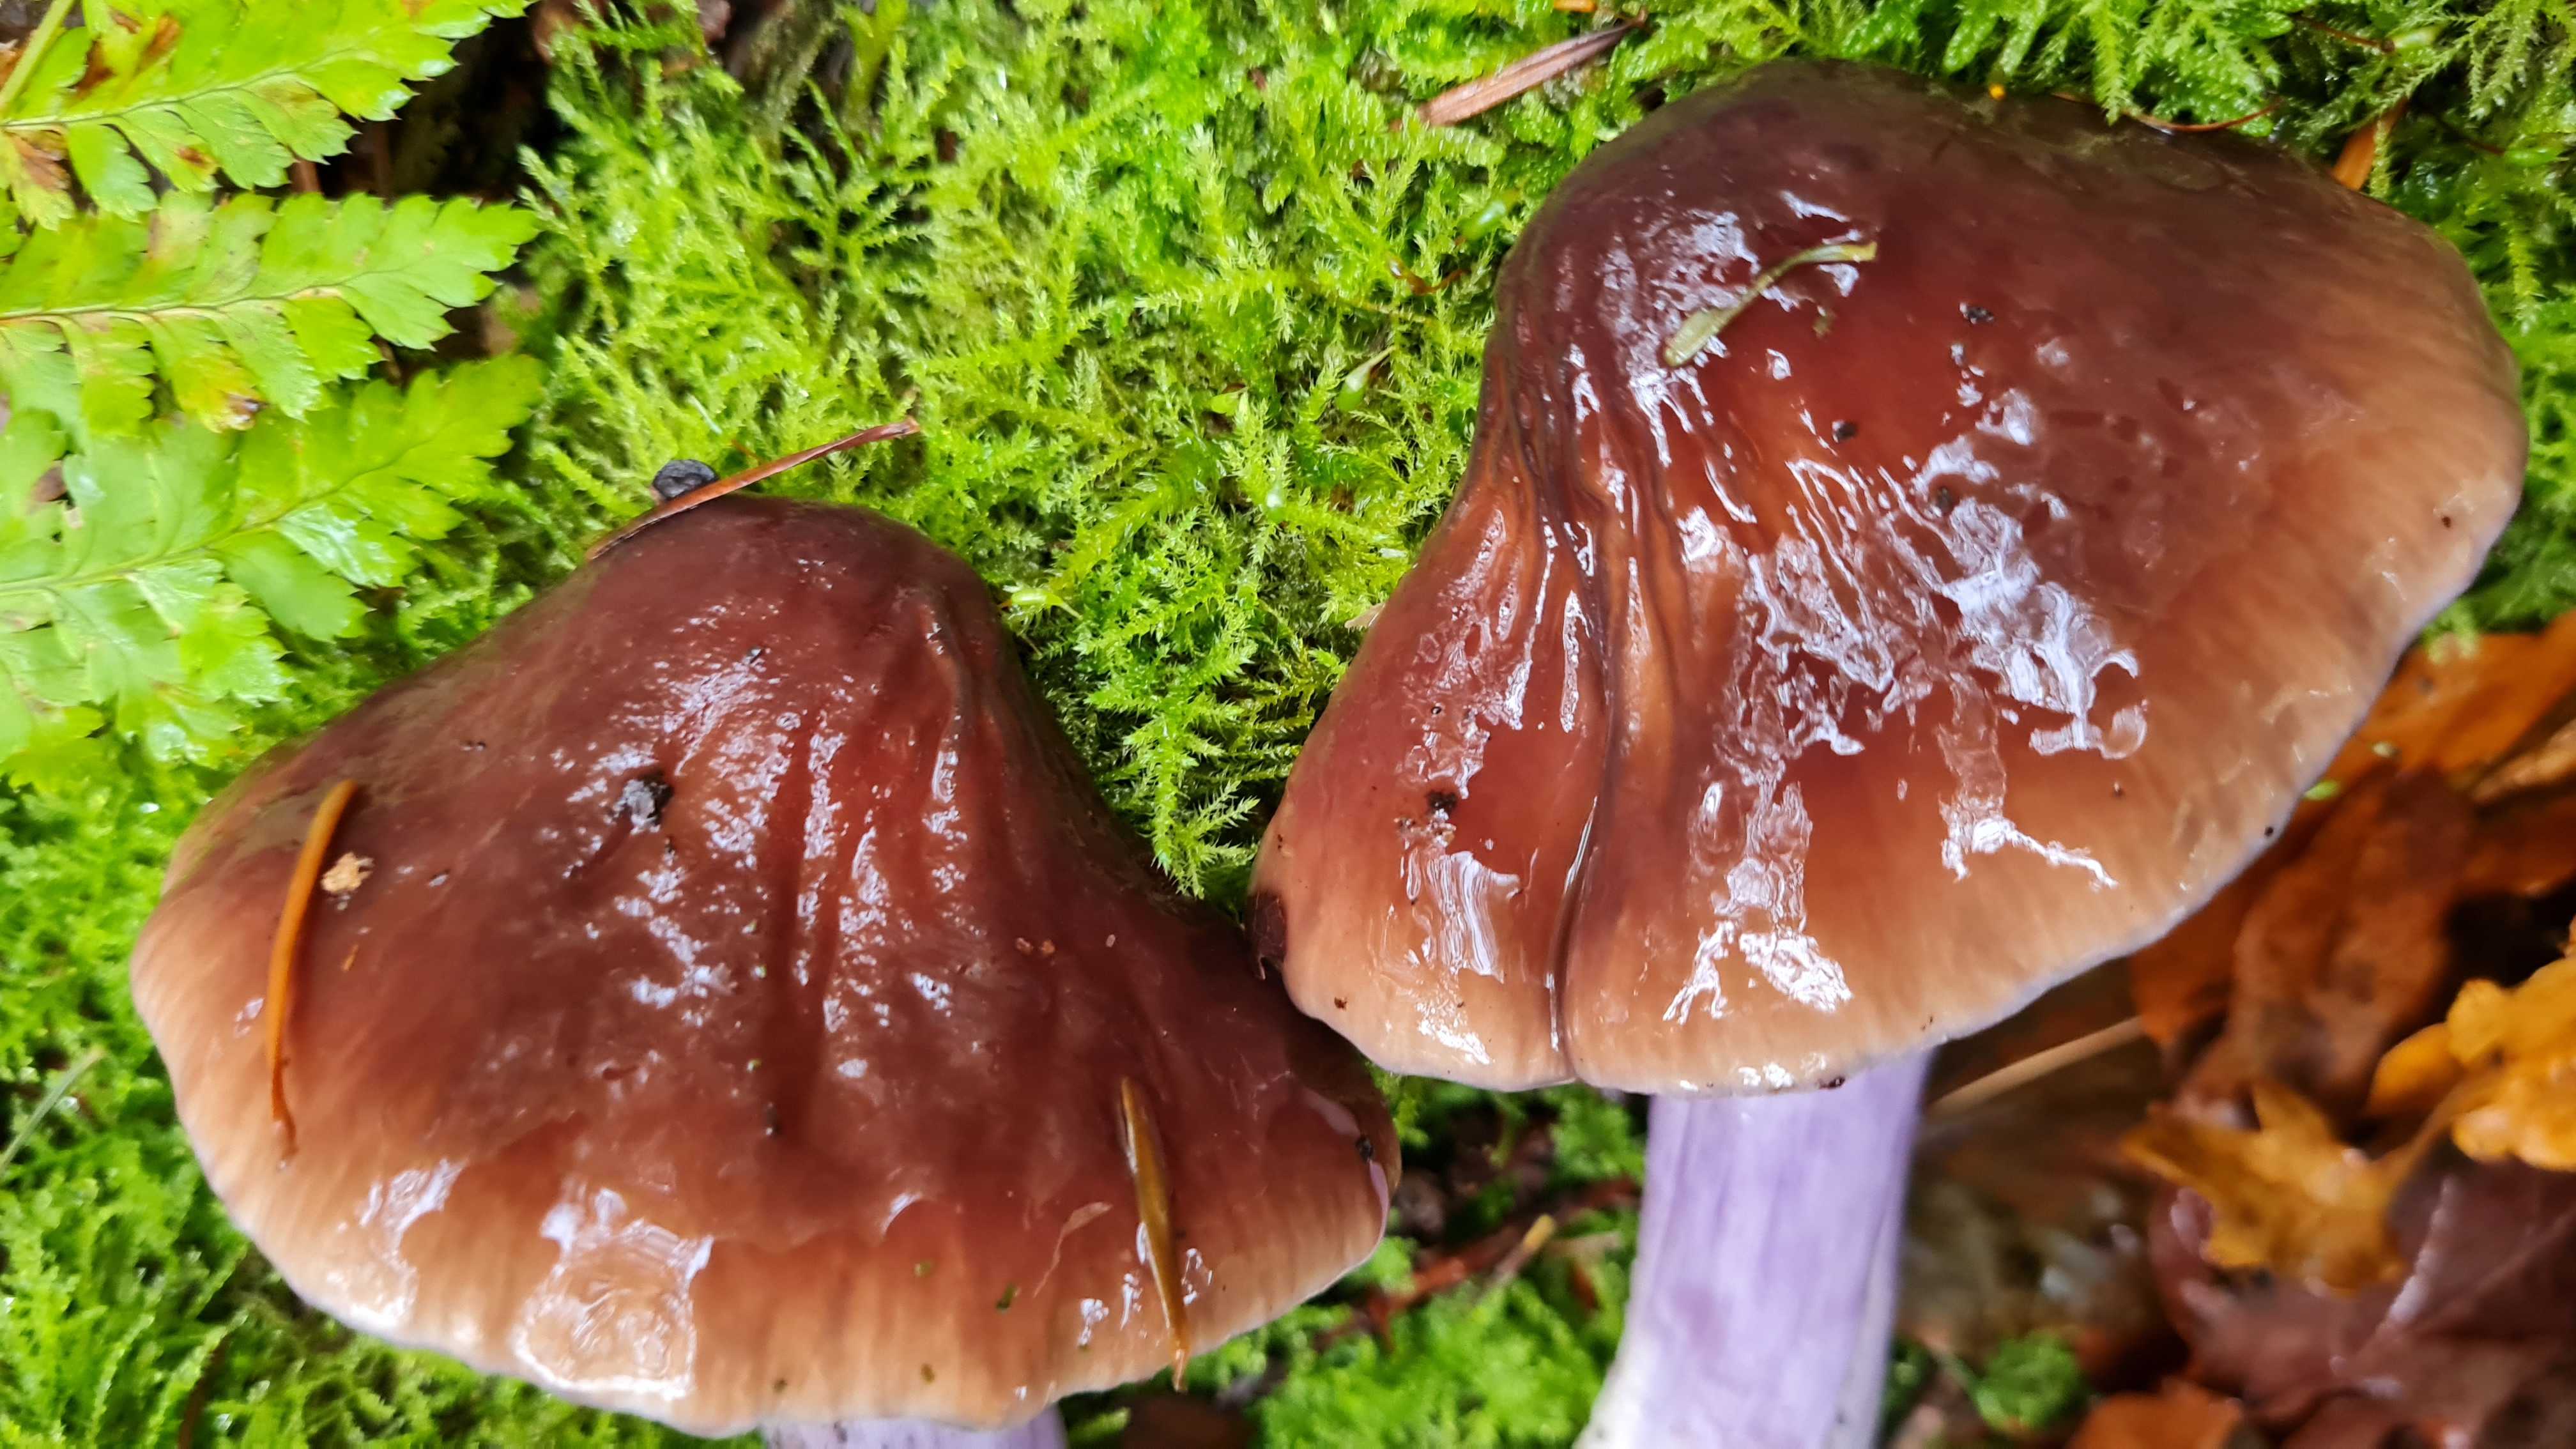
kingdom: Fungi
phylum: Basidiomycota
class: Agaricomycetes
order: Agaricales
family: Cortinariaceae
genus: Cortinarius
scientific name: Cortinarius elatior
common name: høj slørhat
